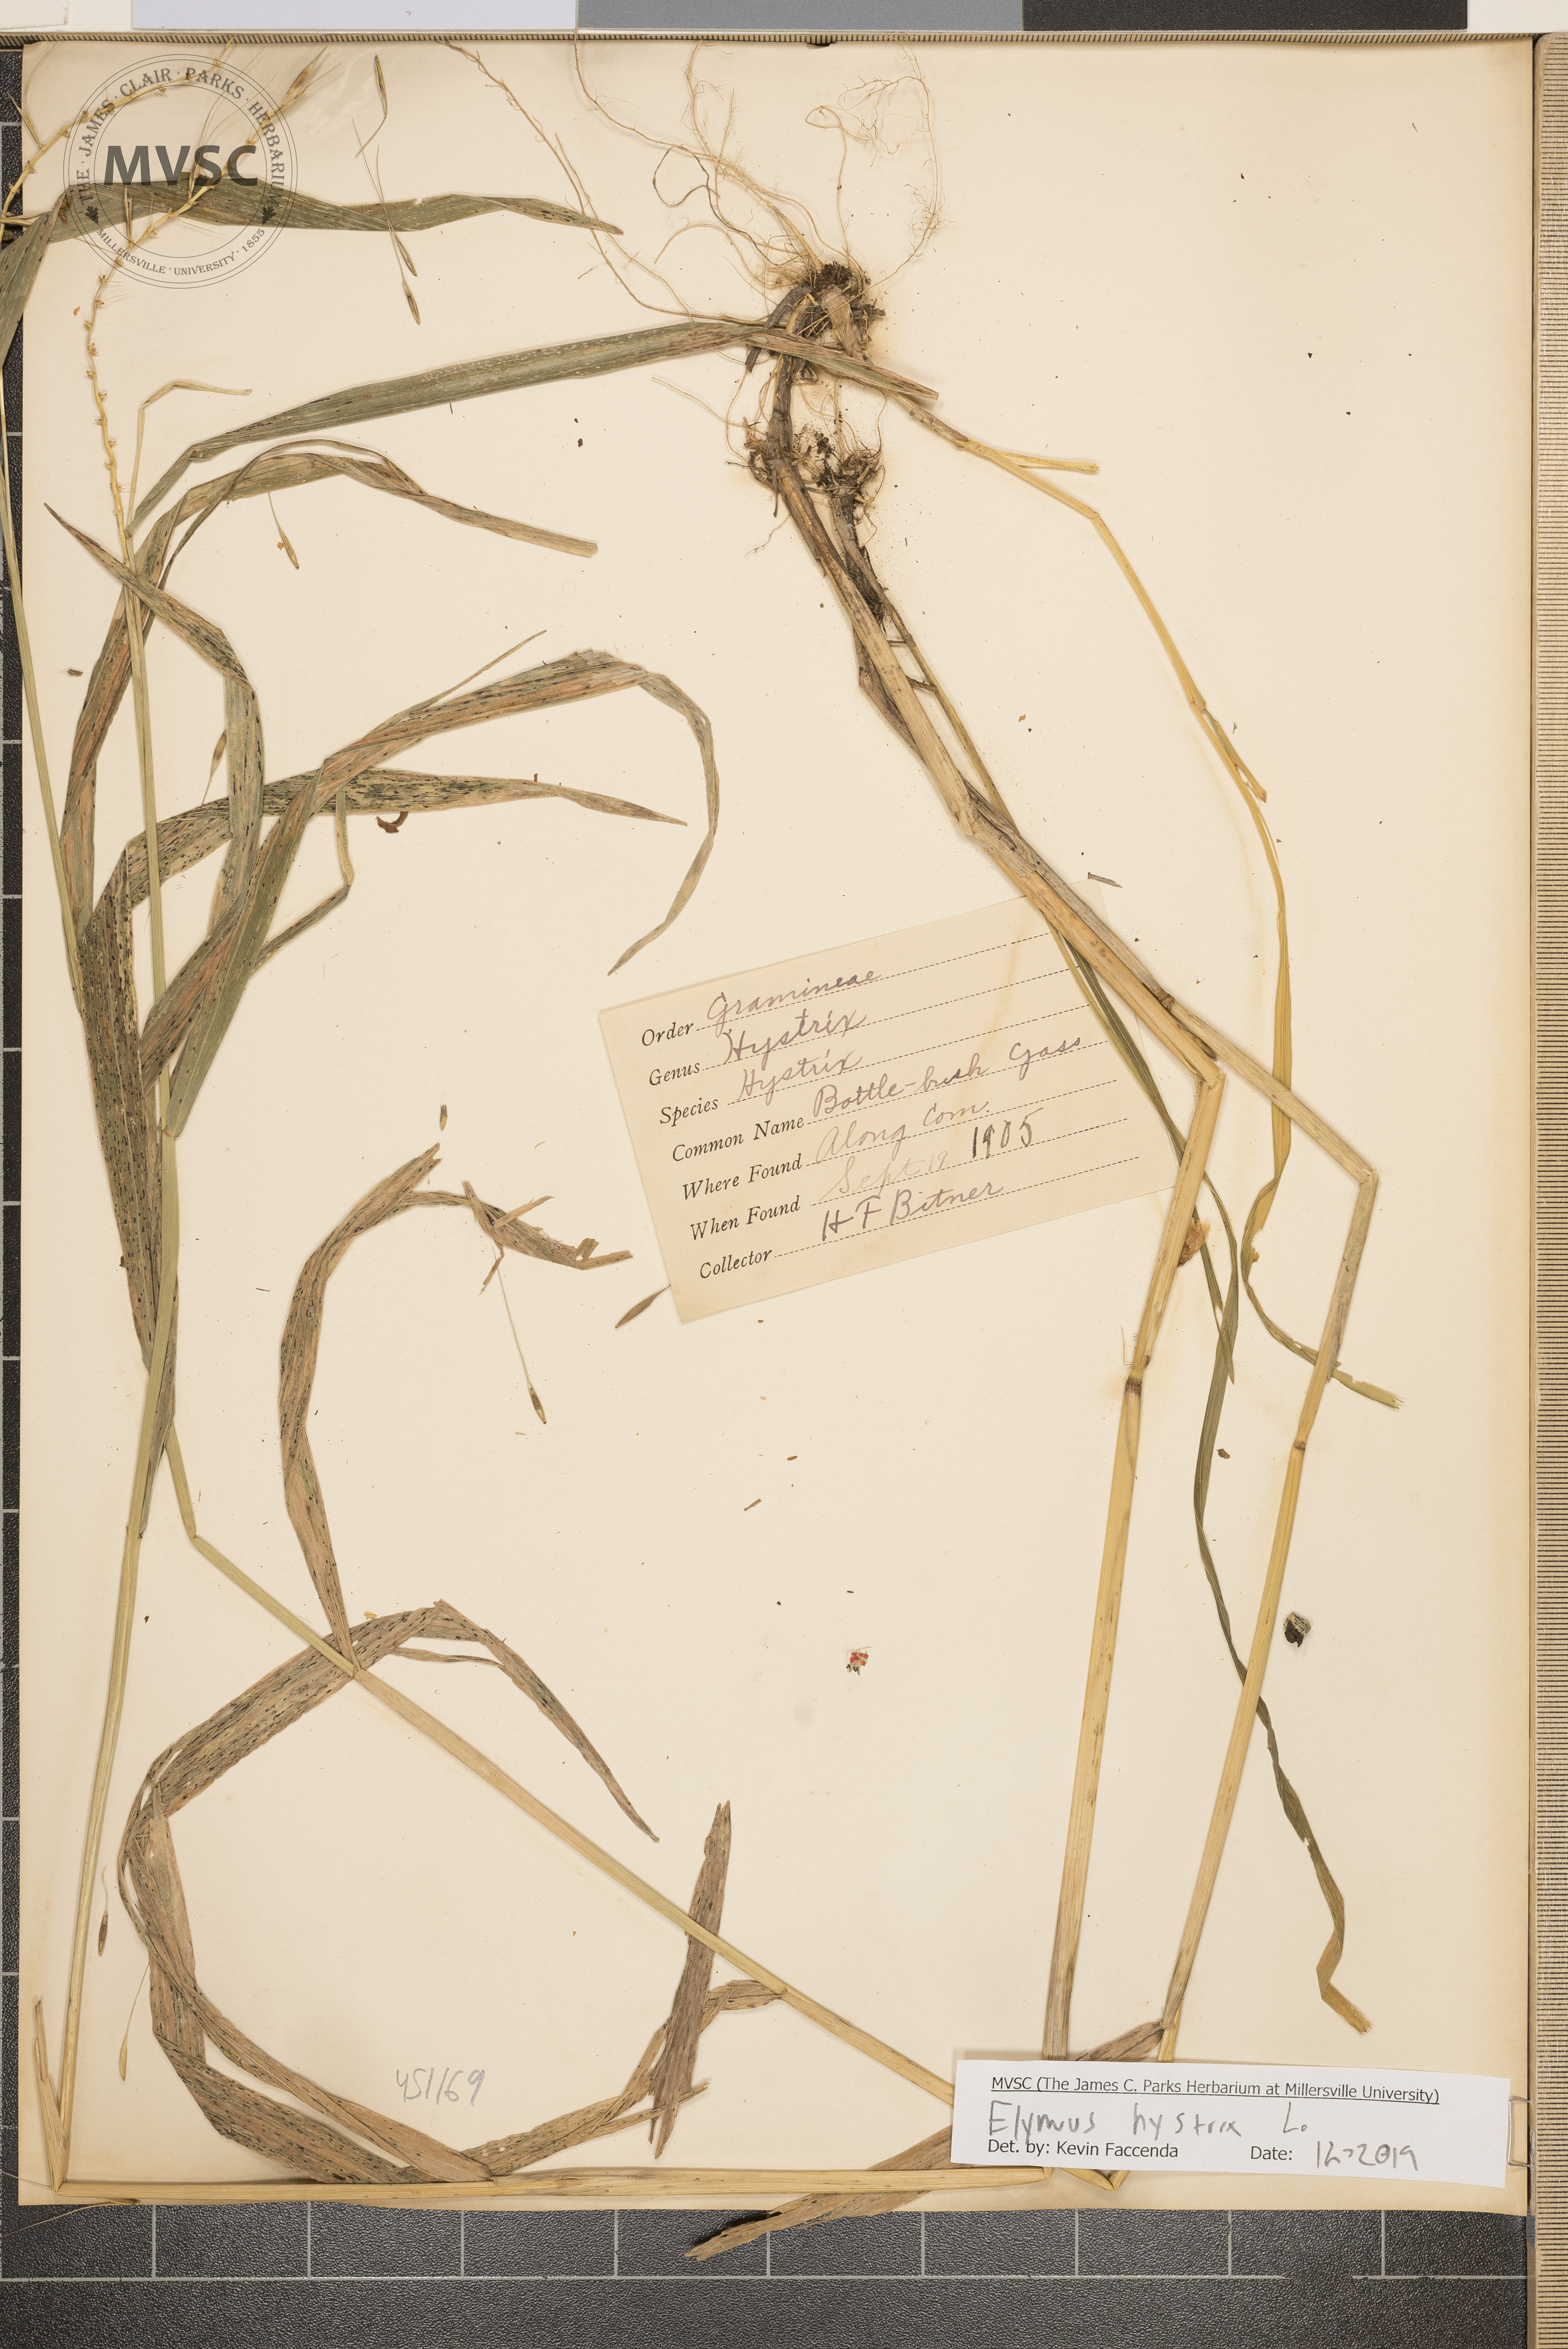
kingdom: Plantae
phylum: Tracheophyta
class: Liliopsida
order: Poales
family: Poaceae
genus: Elymus
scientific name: Elymus hystrix
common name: Bottlebrush grass
